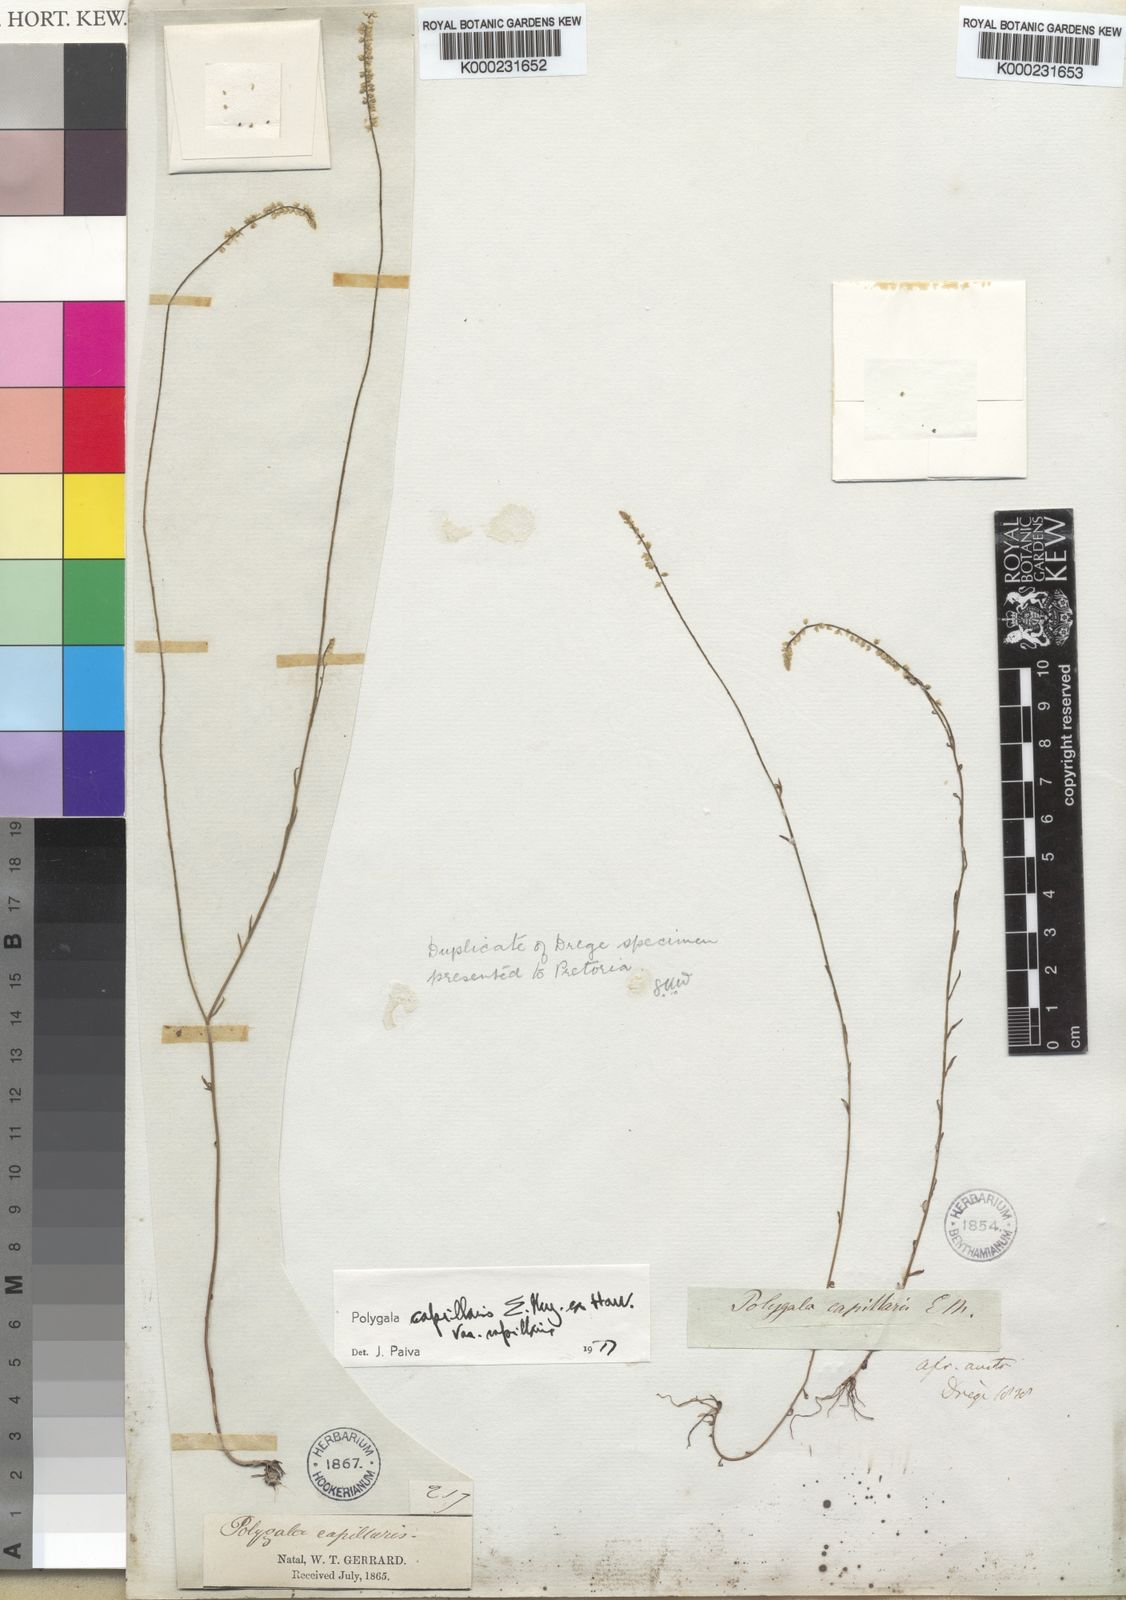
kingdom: Plantae
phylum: Tracheophyta
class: Magnoliopsida
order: Fabales
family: Polygalaceae
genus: Polygala
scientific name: Polygala capillaris
